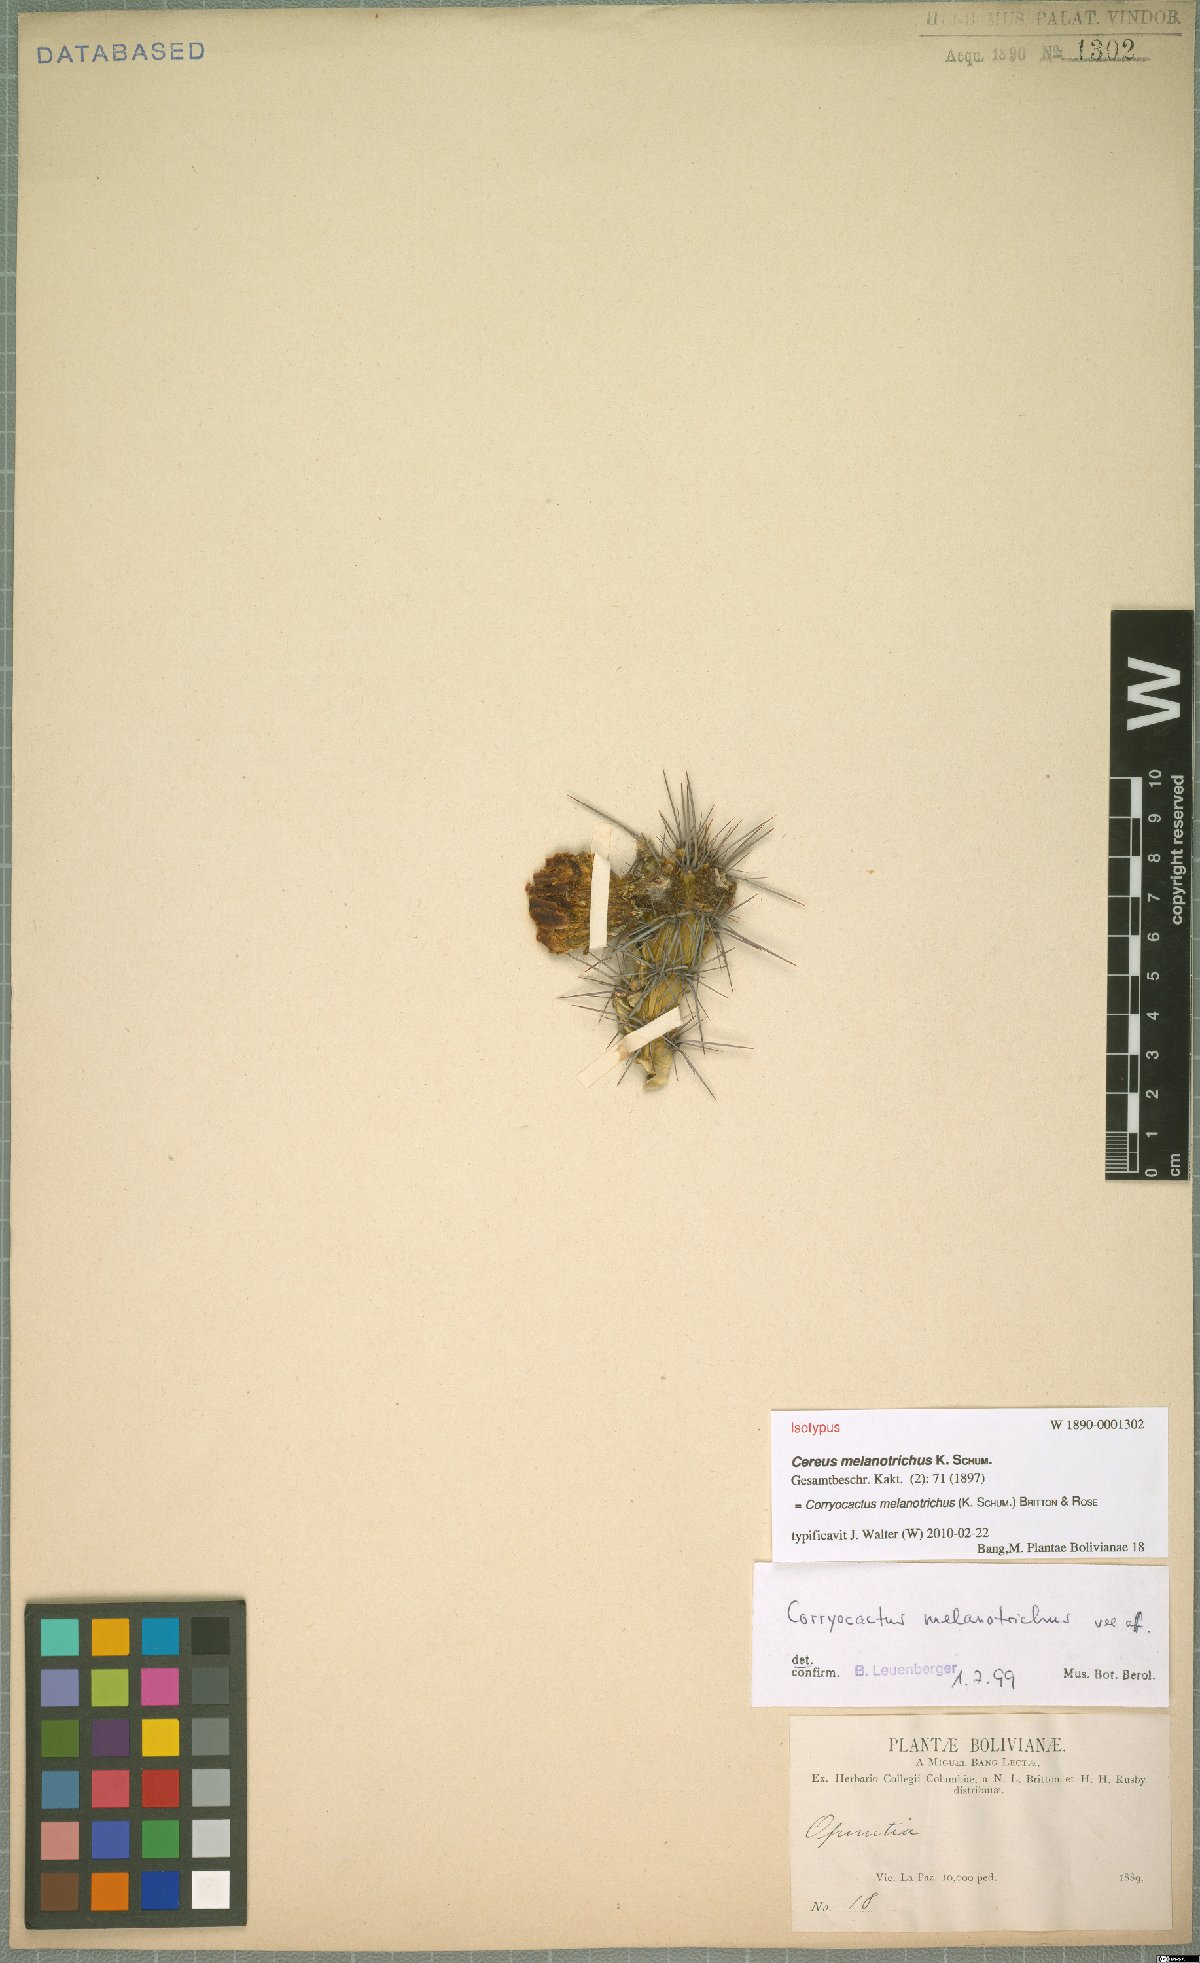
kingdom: Plantae
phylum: Tracheophyta
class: Magnoliopsida
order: Caryophyllales
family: Cactaceae
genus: Corryocactus
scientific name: Corryocactus melanotrichus
